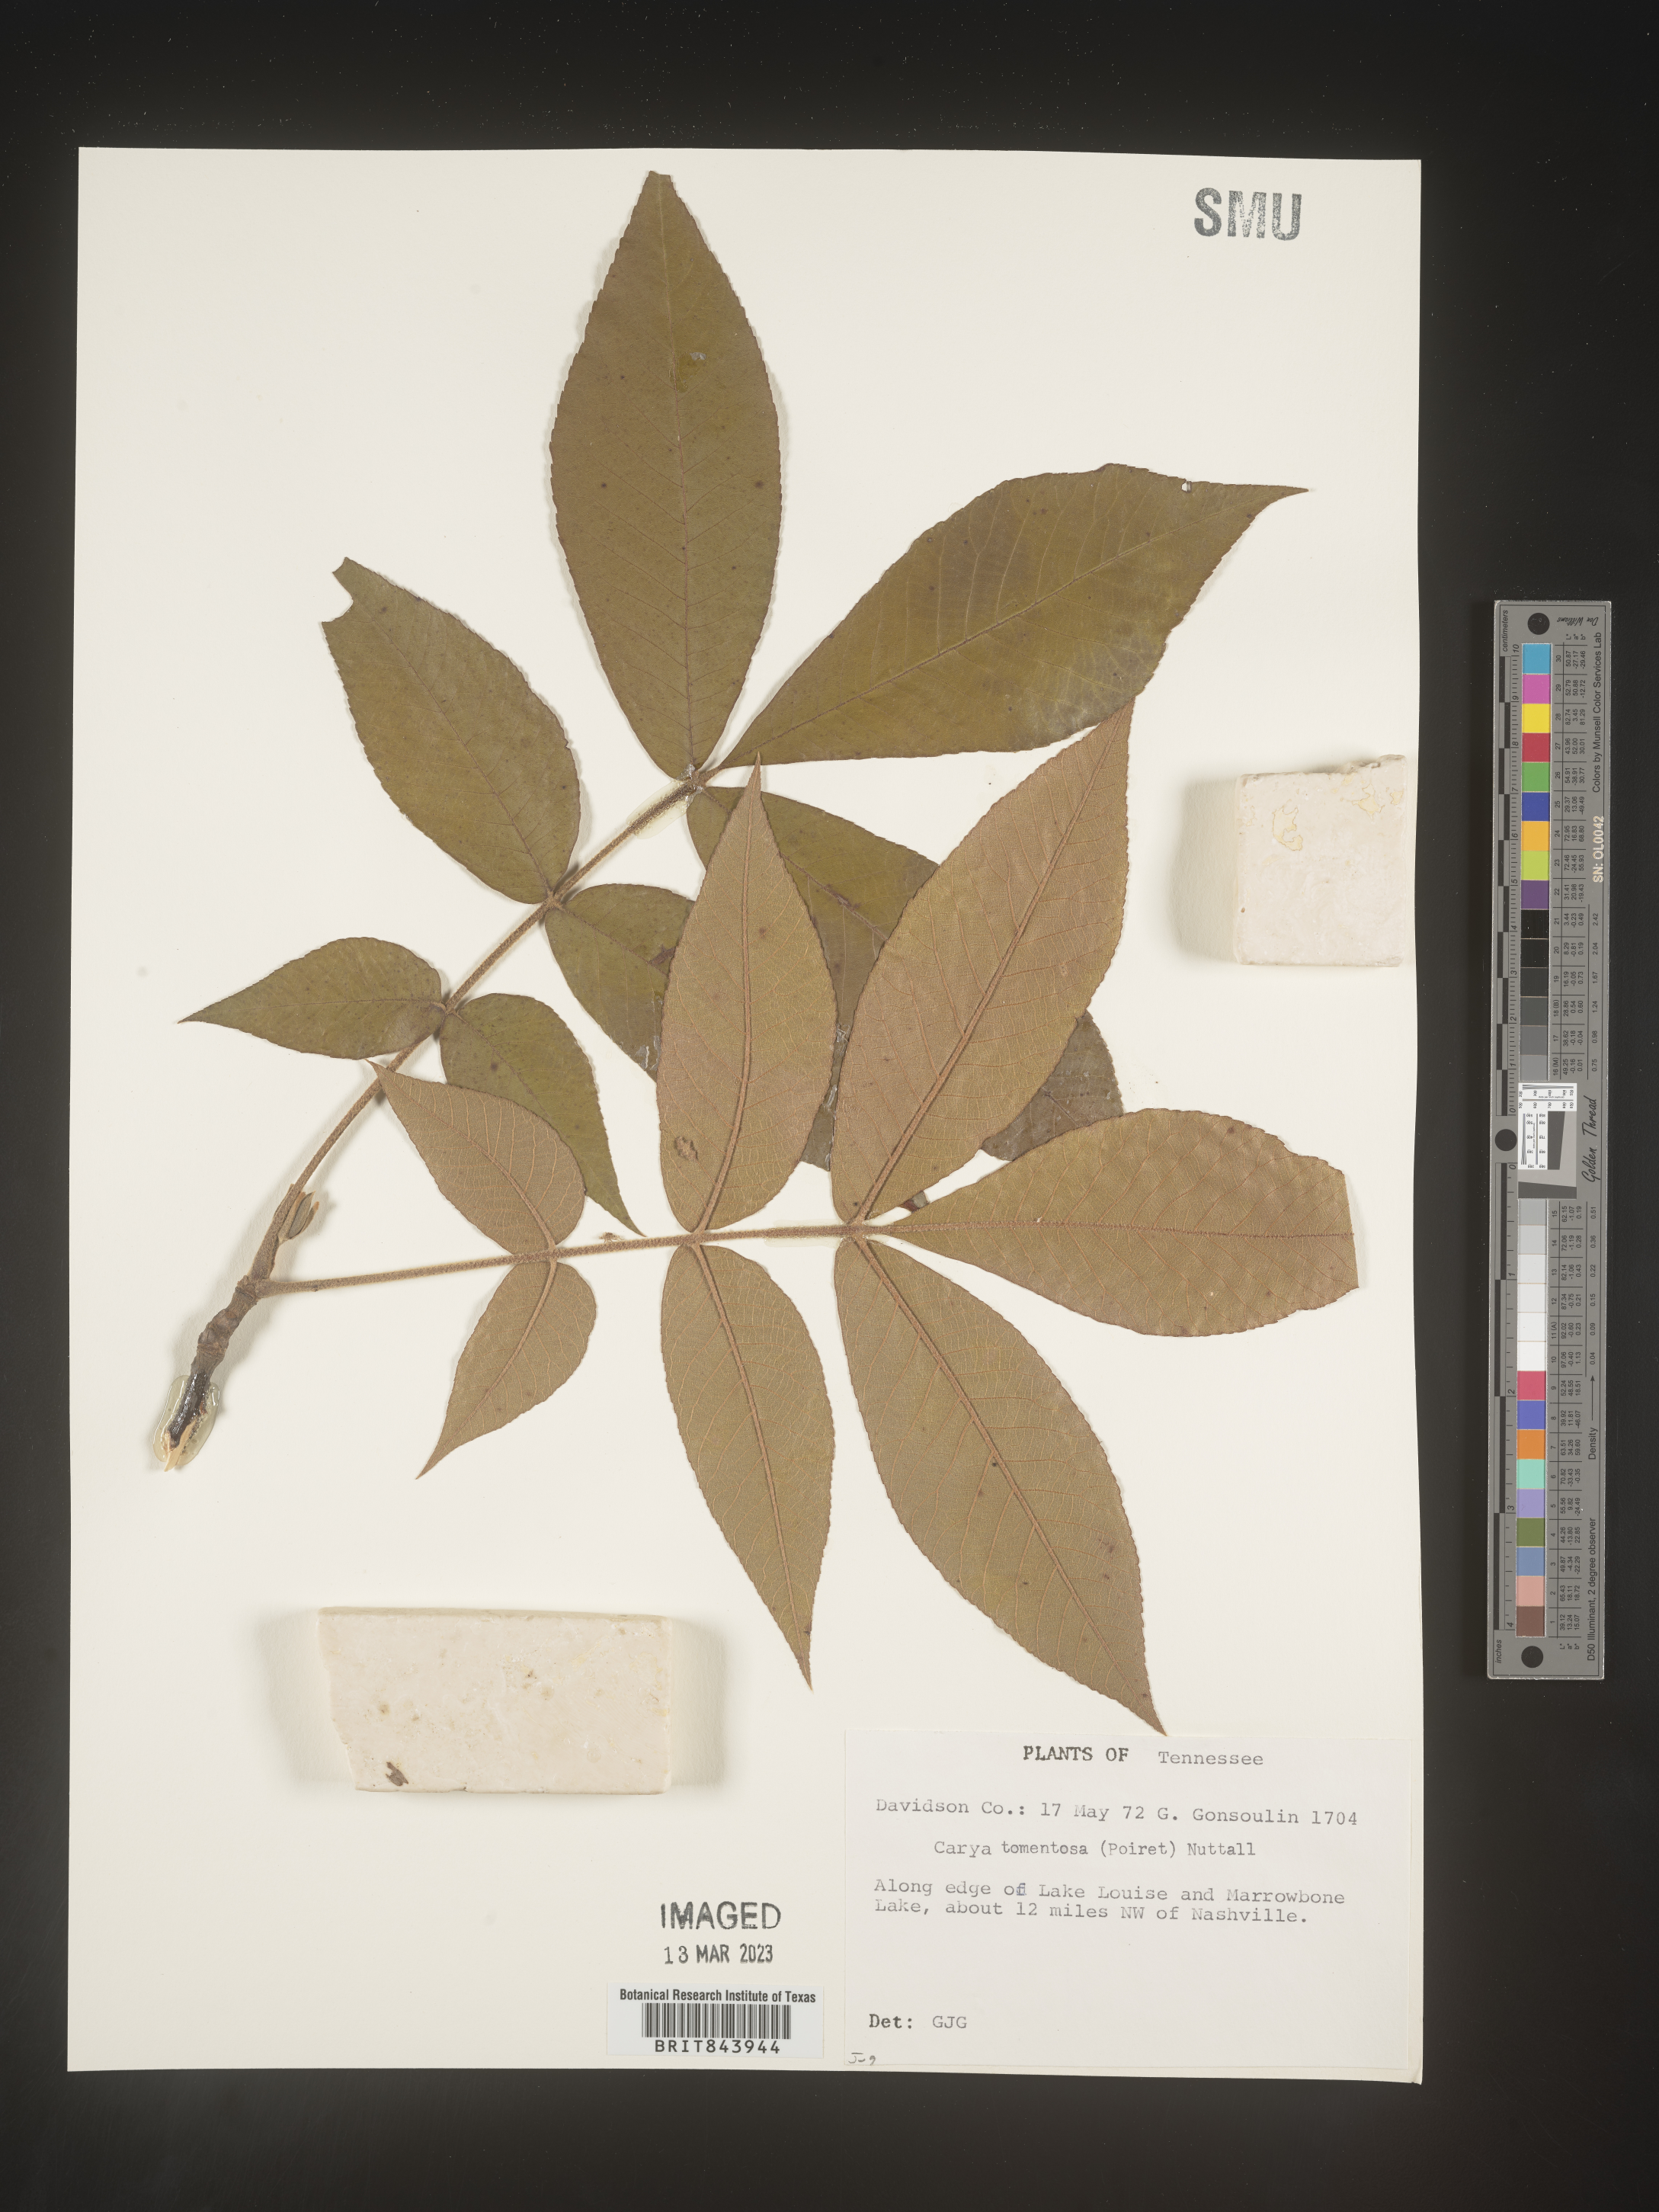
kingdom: Plantae
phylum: Tracheophyta
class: Magnoliopsida
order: Fagales
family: Juglandaceae
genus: Carya
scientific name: Carya alba
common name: Mockernut hickory
